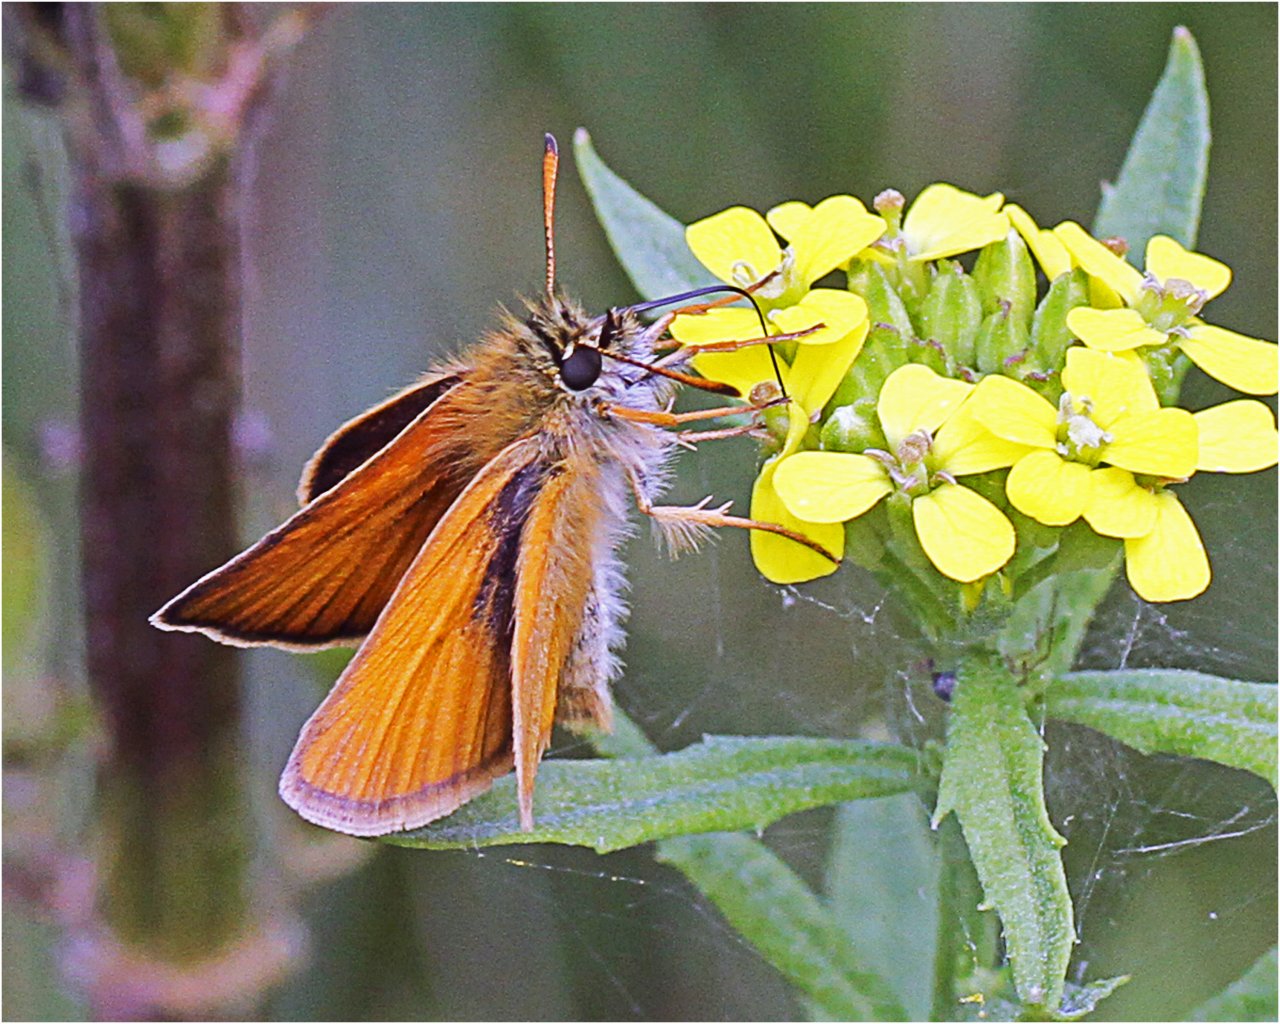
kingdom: Animalia
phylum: Arthropoda
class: Insecta
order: Lepidoptera
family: Hesperiidae
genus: Thymelicus
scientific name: Thymelicus lineola
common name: European Skipper
